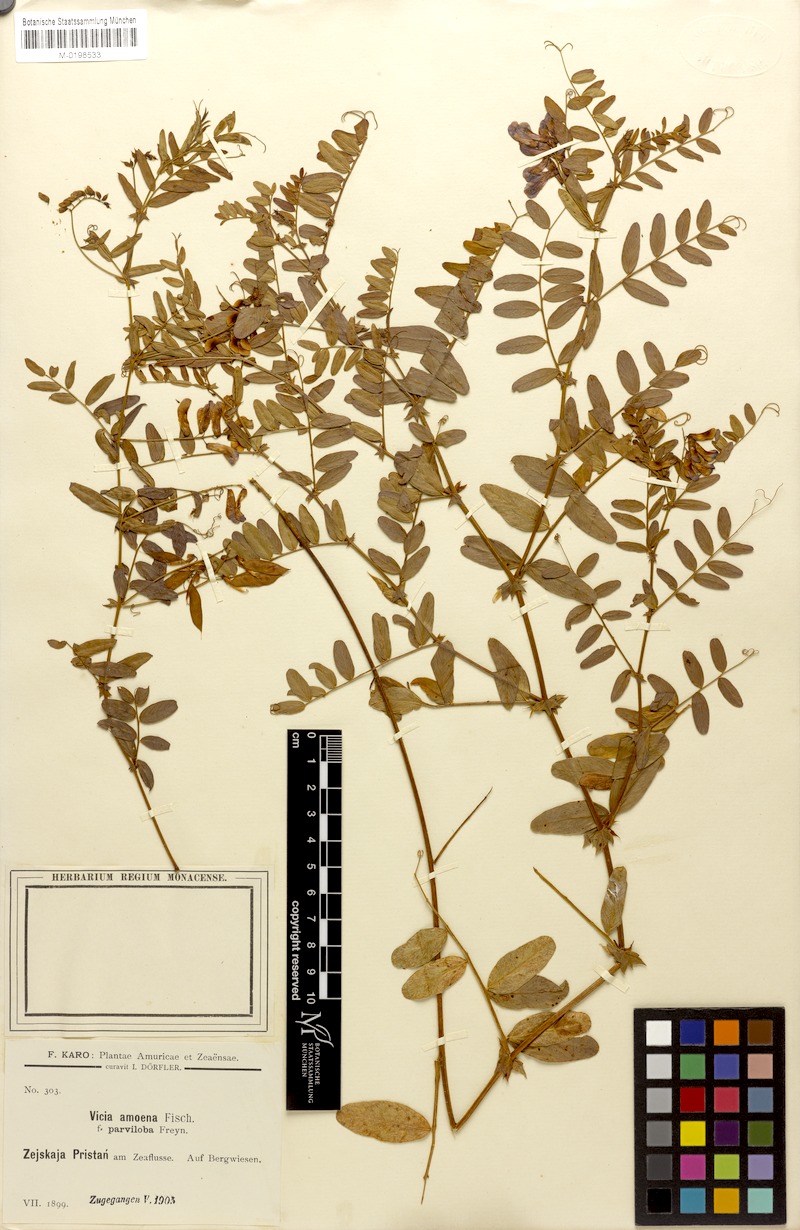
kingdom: Plantae
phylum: Tracheophyta
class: Magnoliopsida
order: Fabales
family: Fabaceae
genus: Vicia
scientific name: Vicia amoena
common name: Cheder ebs
